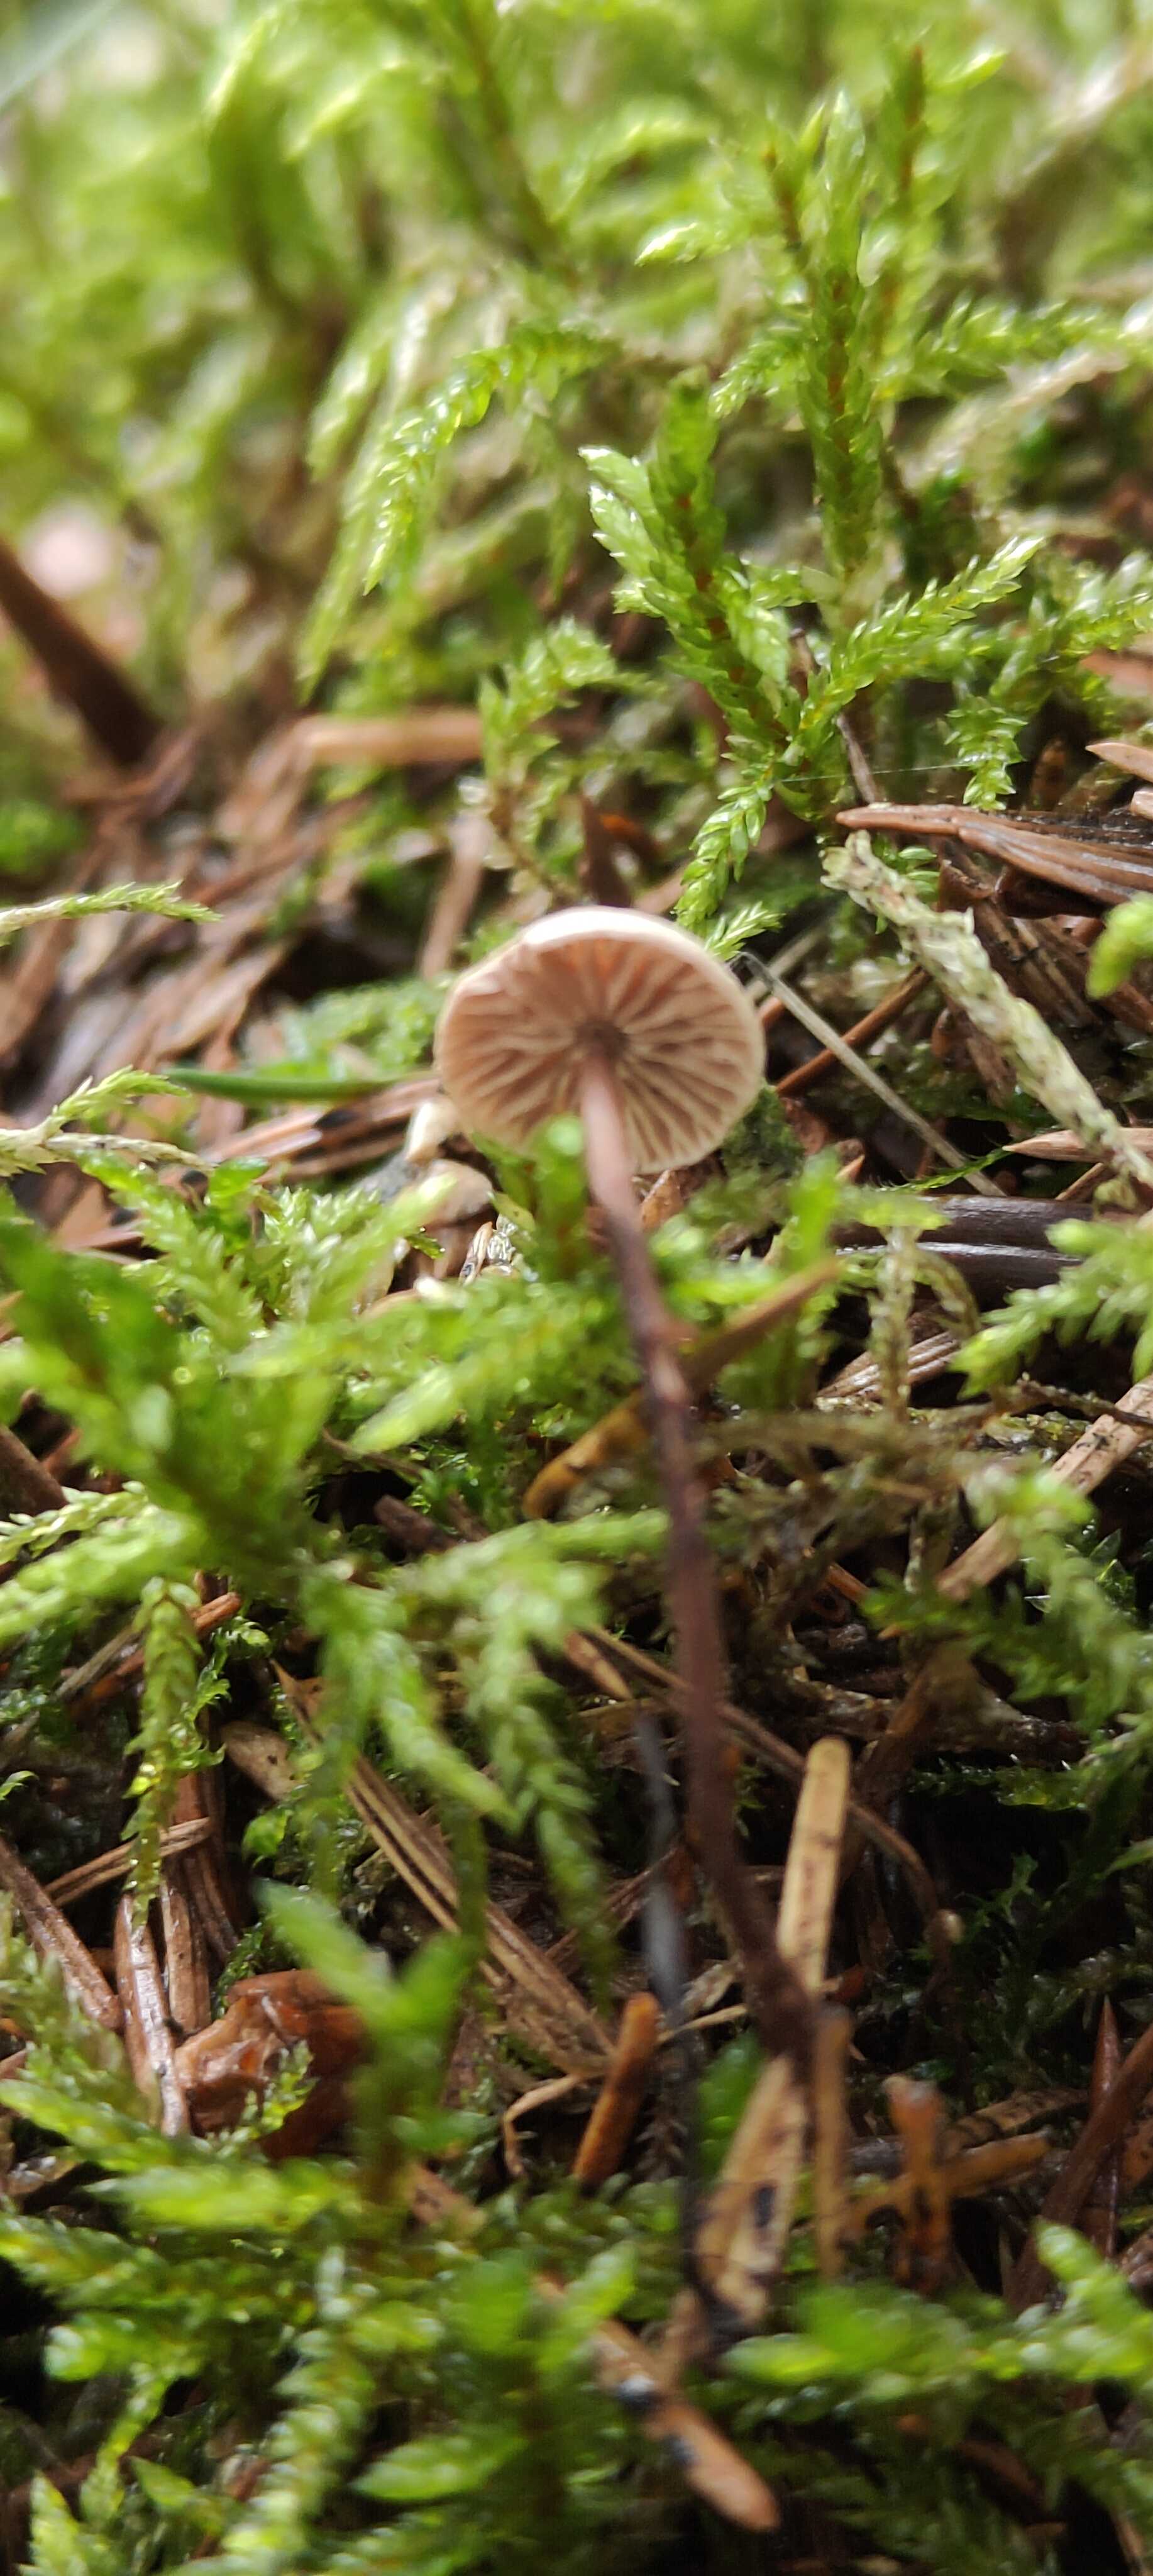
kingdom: Fungi
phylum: Basidiomycota
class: Agaricomycetes
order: Agaricales
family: Omphalotaceae
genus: Paragymnopus
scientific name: Paragymnopus perforans
